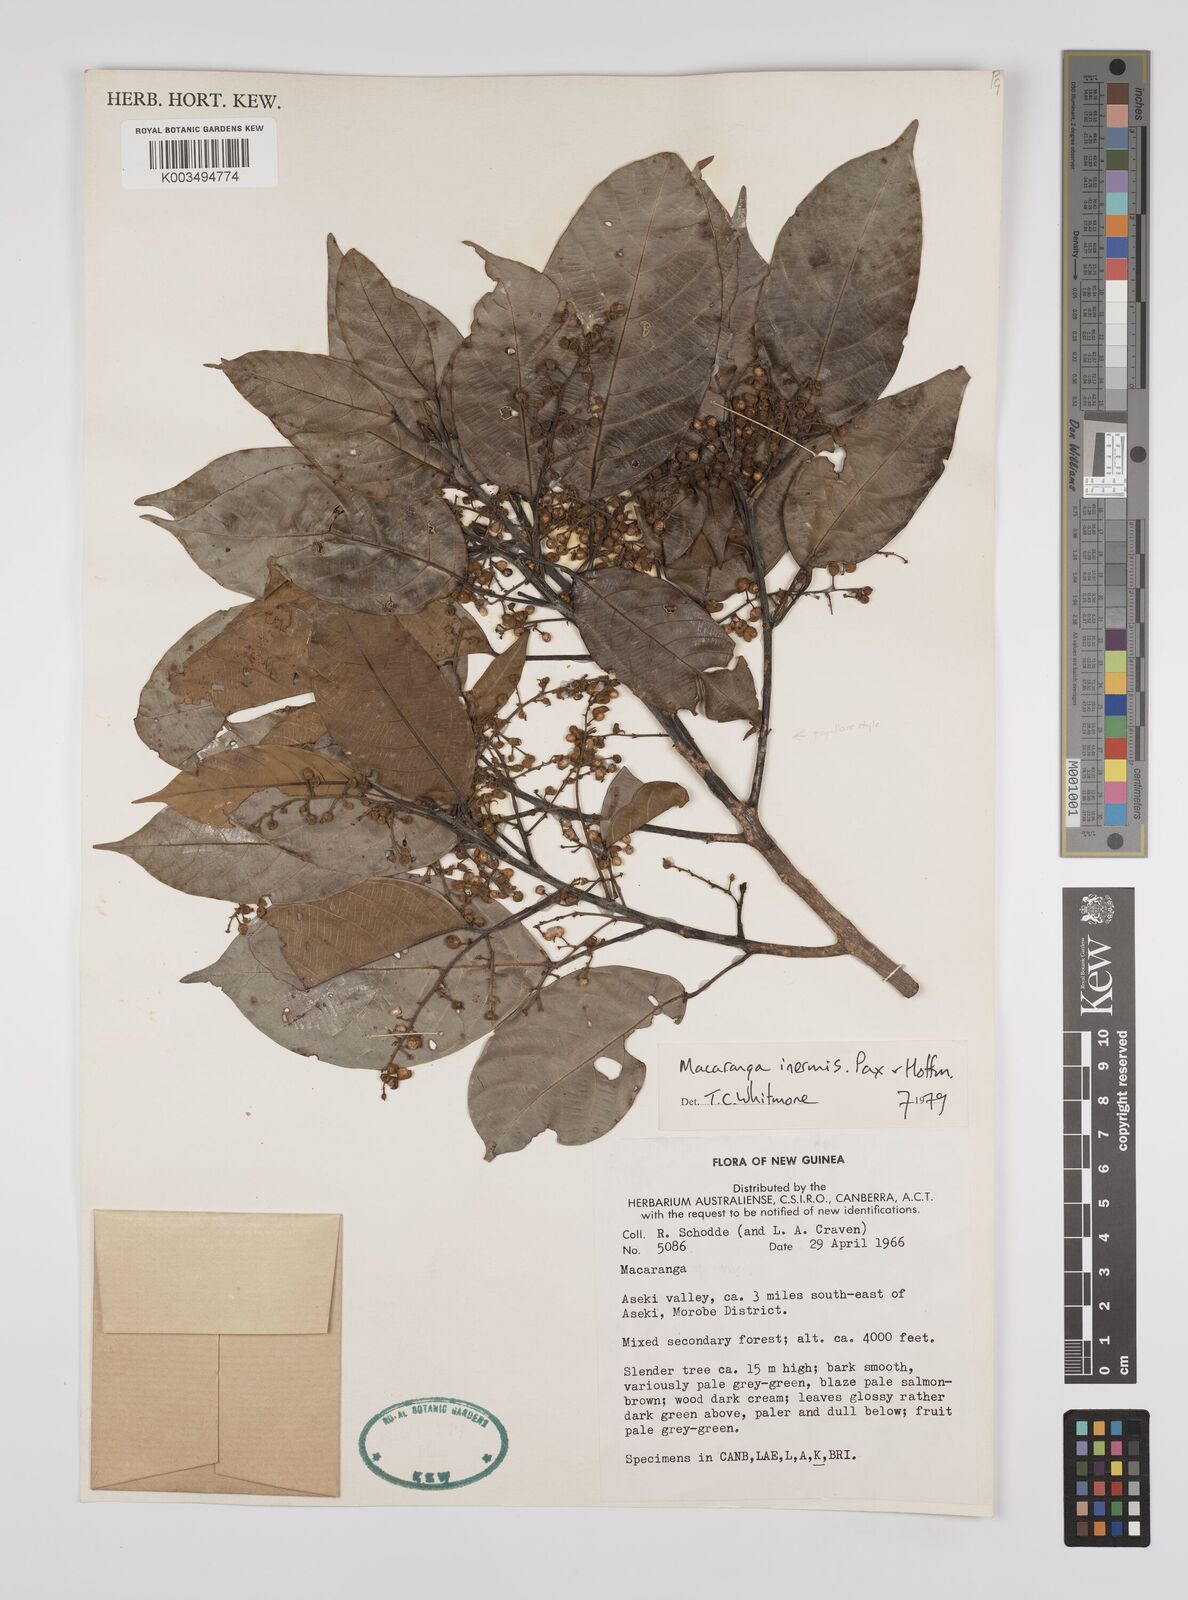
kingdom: Plantae
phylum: Tracheophyta
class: Magnoliopsida
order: Malpighiales
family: Euphorbiaceae
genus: Macaranga
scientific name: Macaranga inermis
